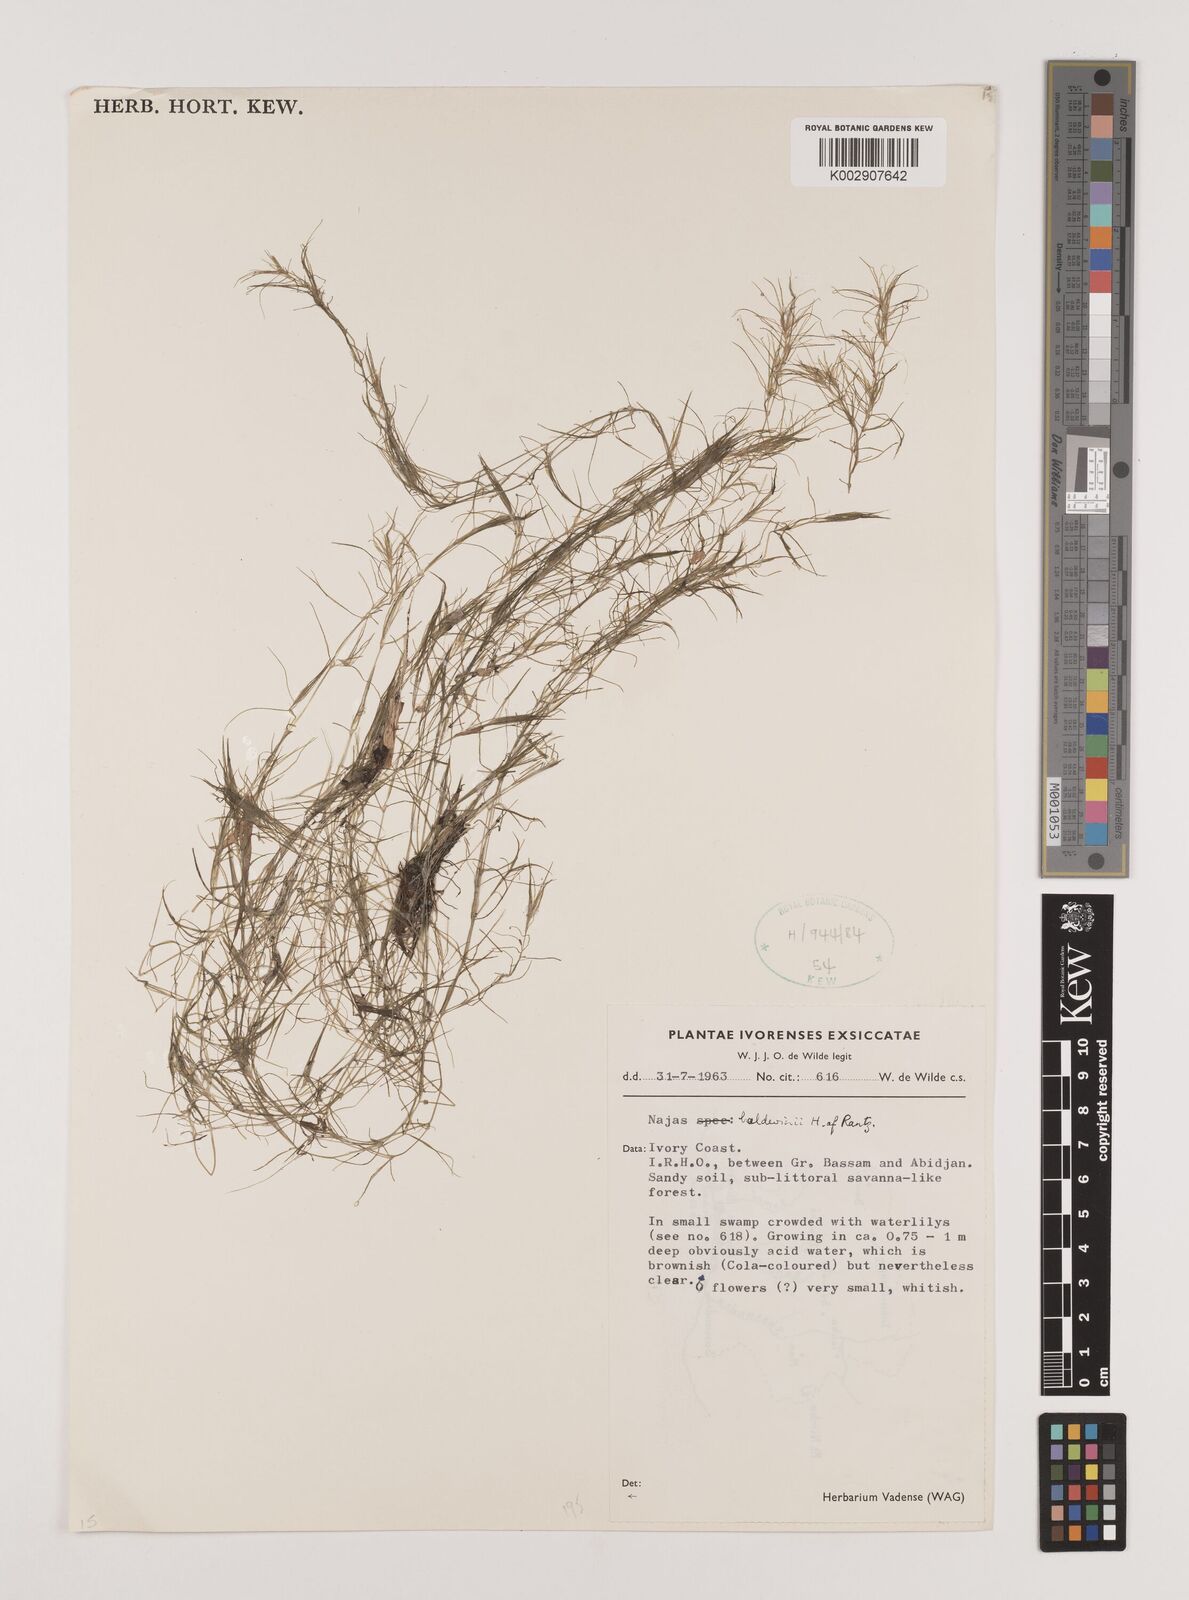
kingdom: Plantae
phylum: Tracheophyta
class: Liliopsida
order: Alismatales
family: Hydrocharitaceae
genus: Najas
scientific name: Najas baldwinii
